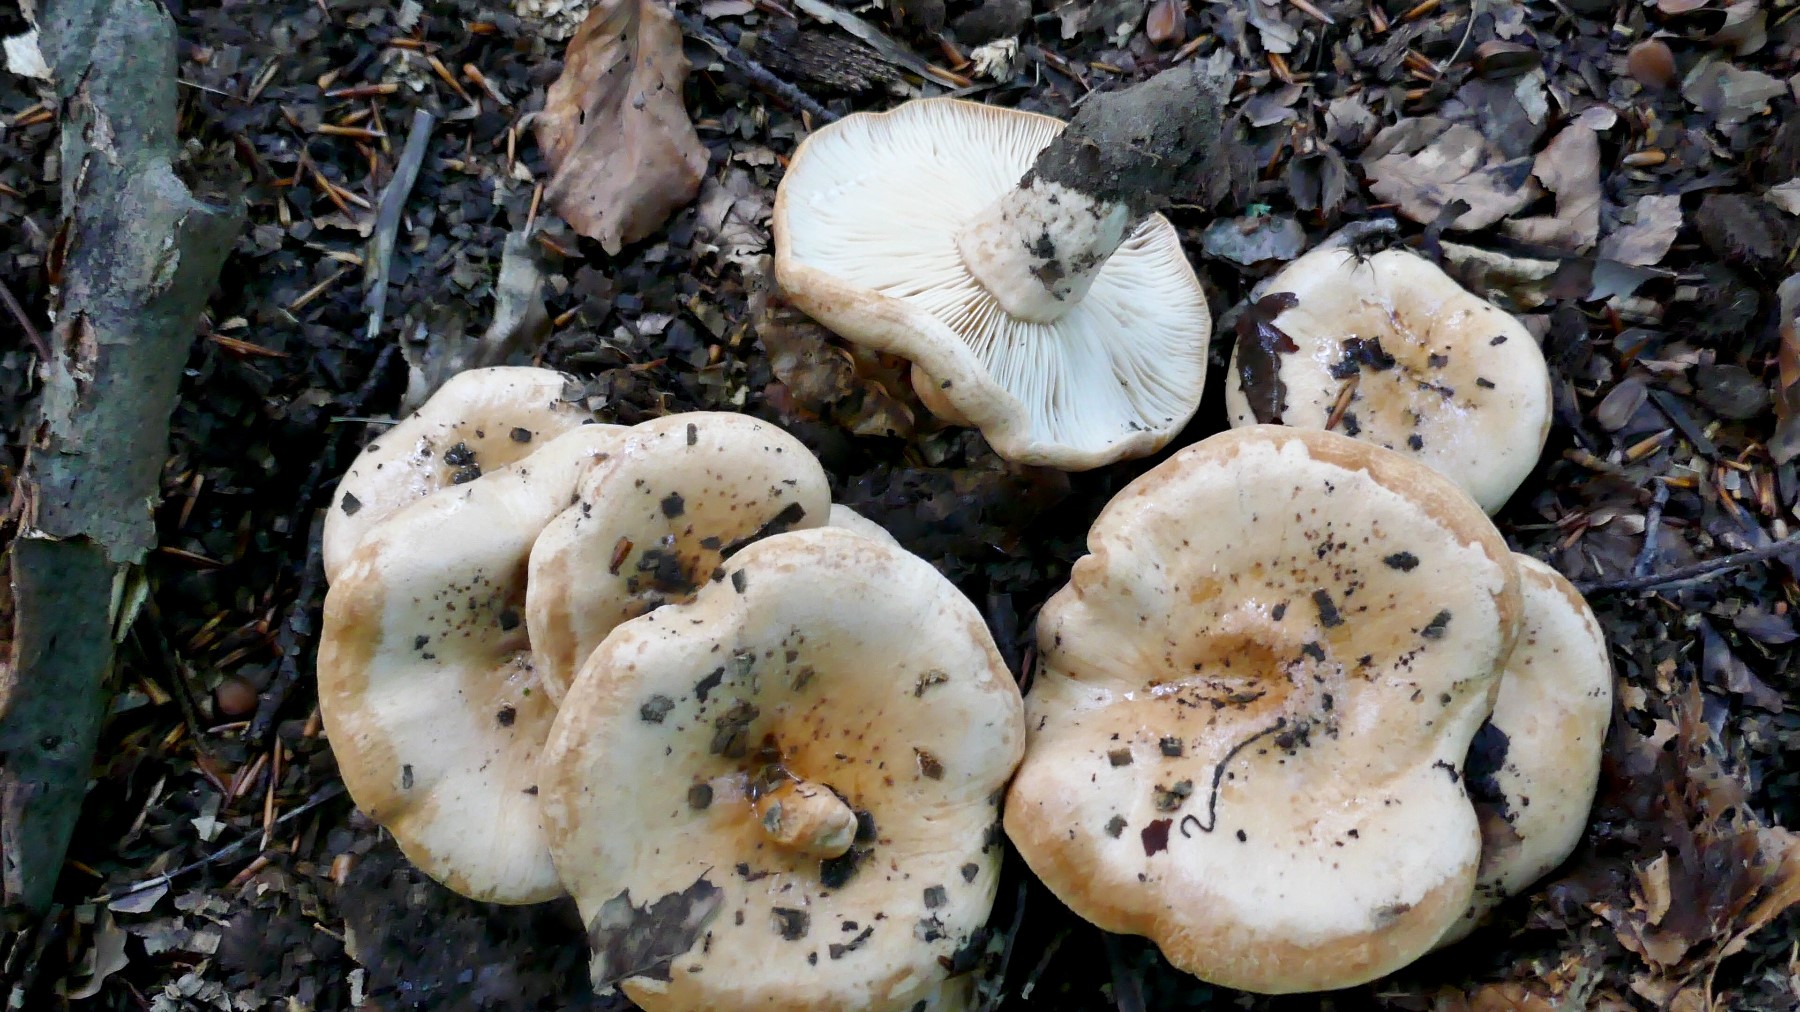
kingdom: Fungi
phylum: Basidiomycota
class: Agaricomycetes
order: Russulales
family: Russulaceae
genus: Lactarius
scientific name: Lactarius pallidus
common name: bleg mælkehat
